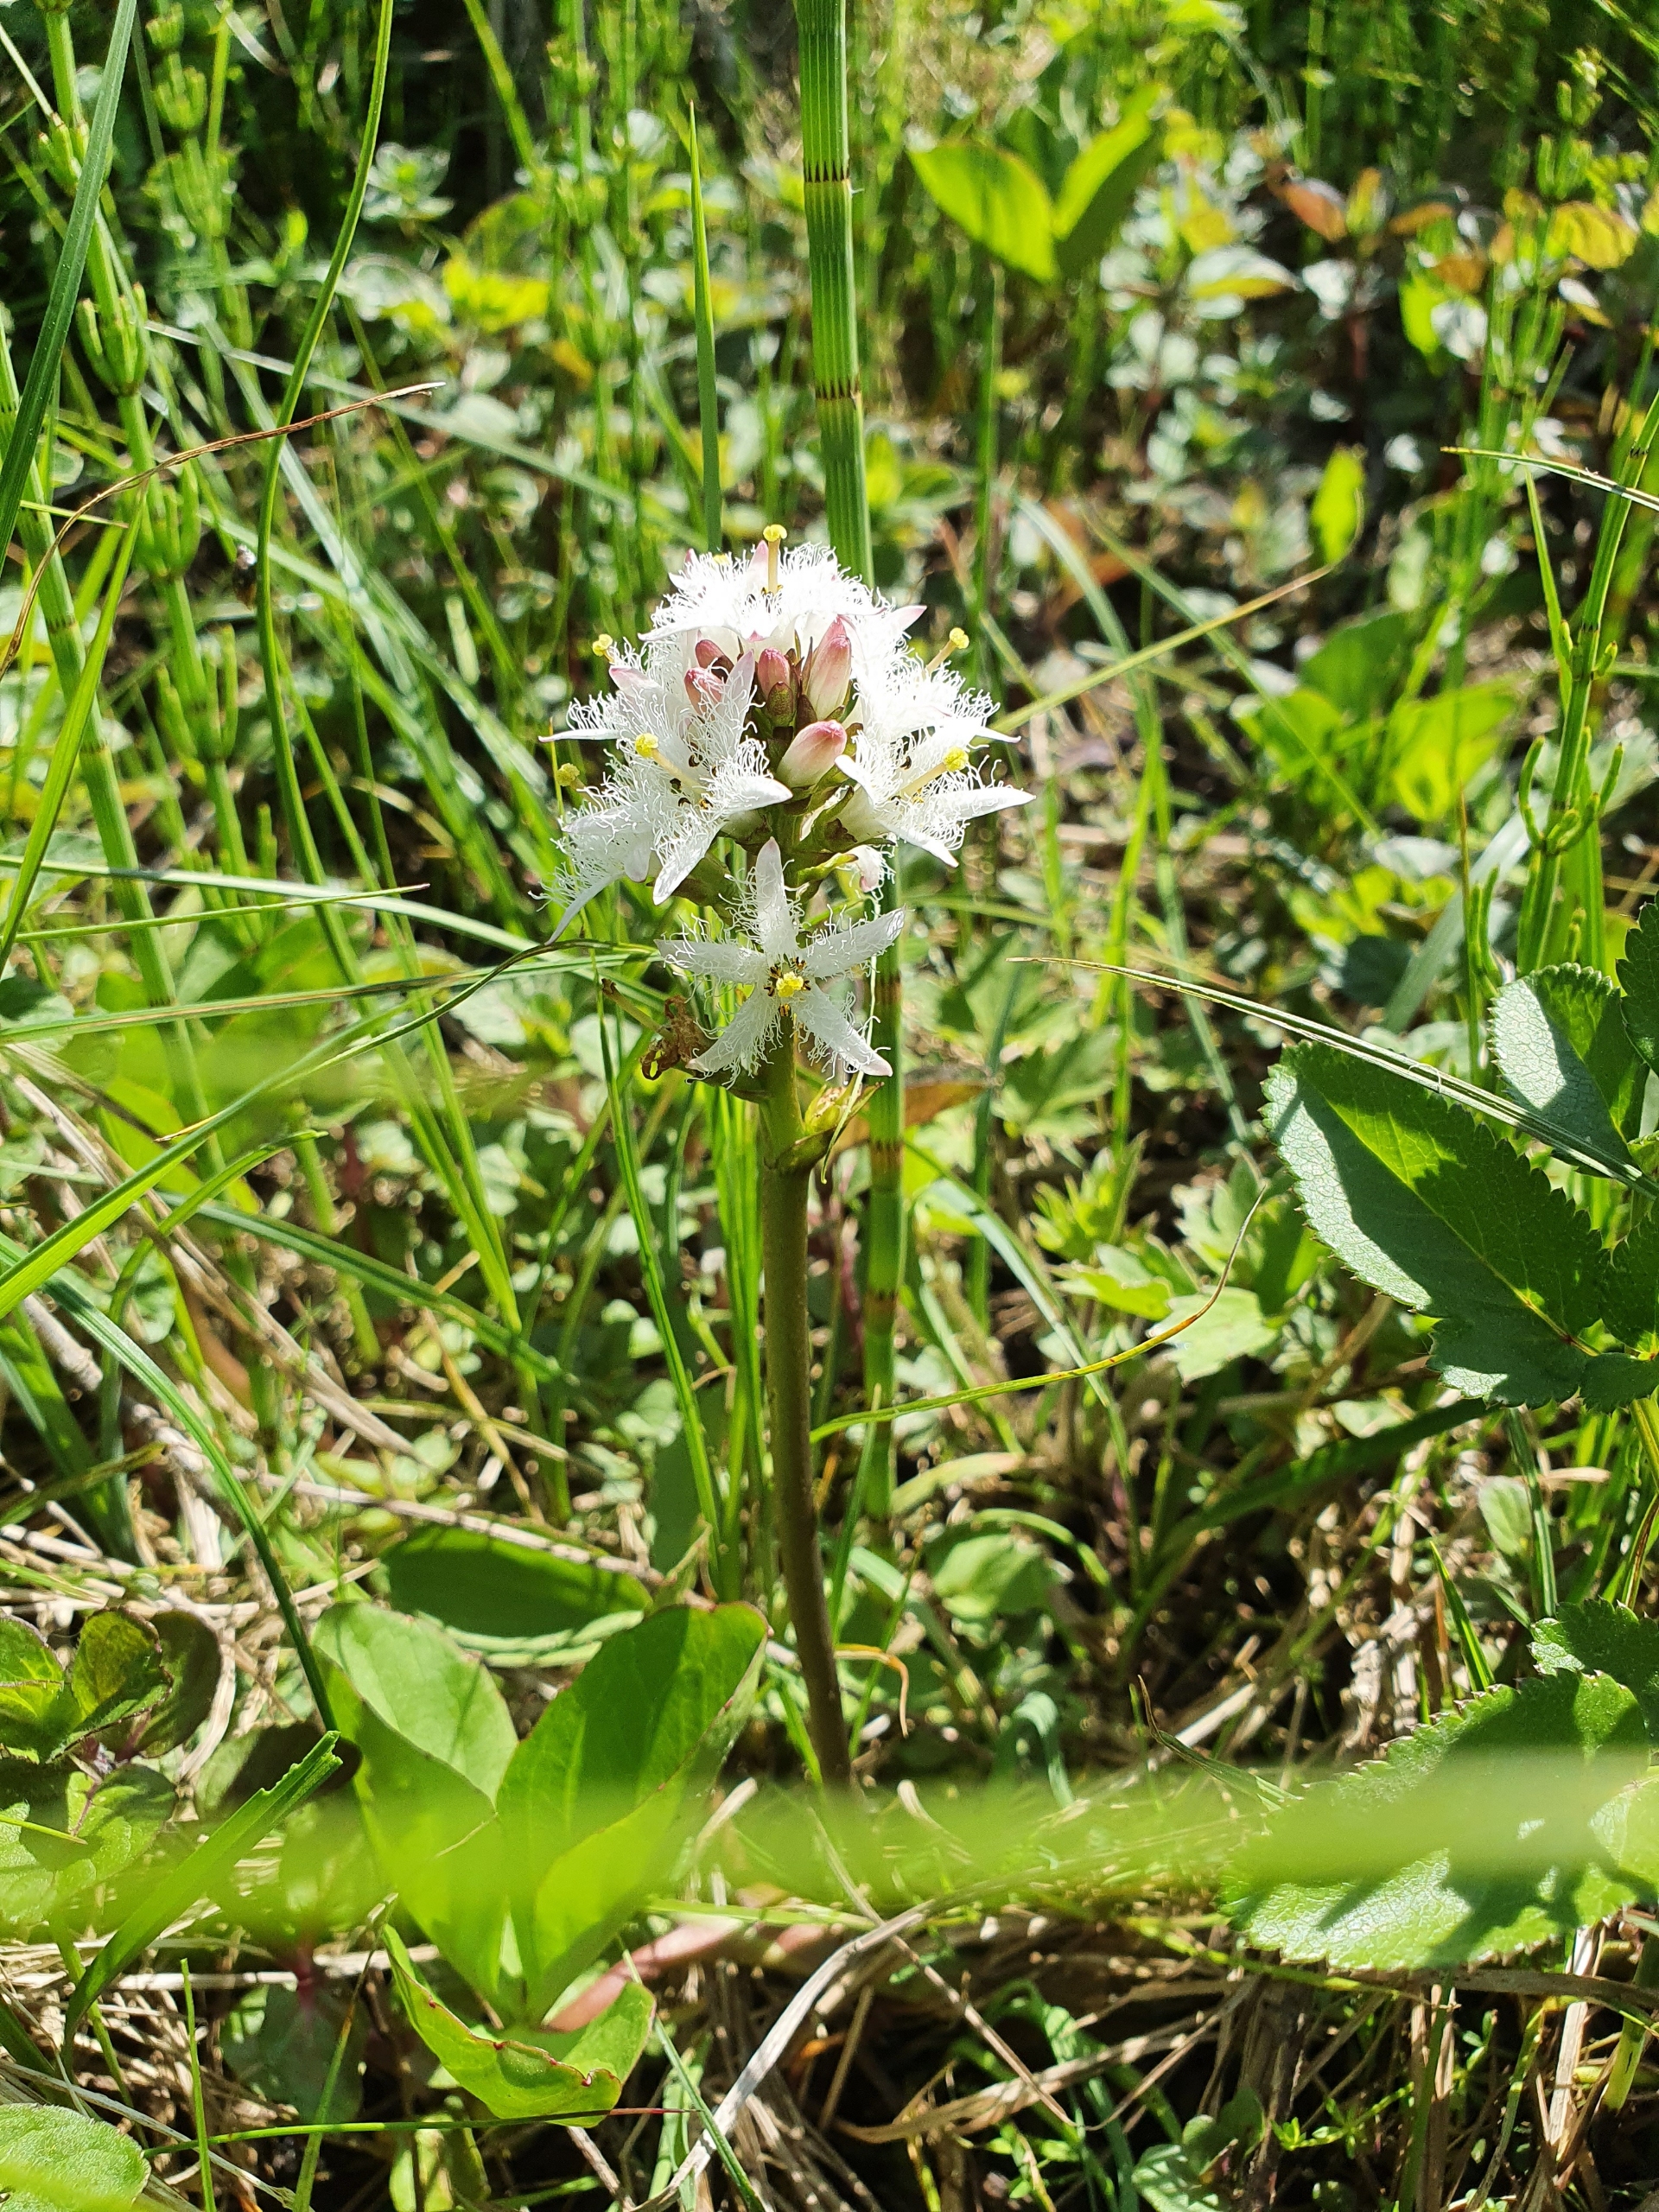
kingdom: Plantae
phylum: Tracheophyta
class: Magnoliopsida
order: Asterales
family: Menyanthaceae
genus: Menyanthes
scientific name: Menyanthes trifoliata
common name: Bukkeblad
